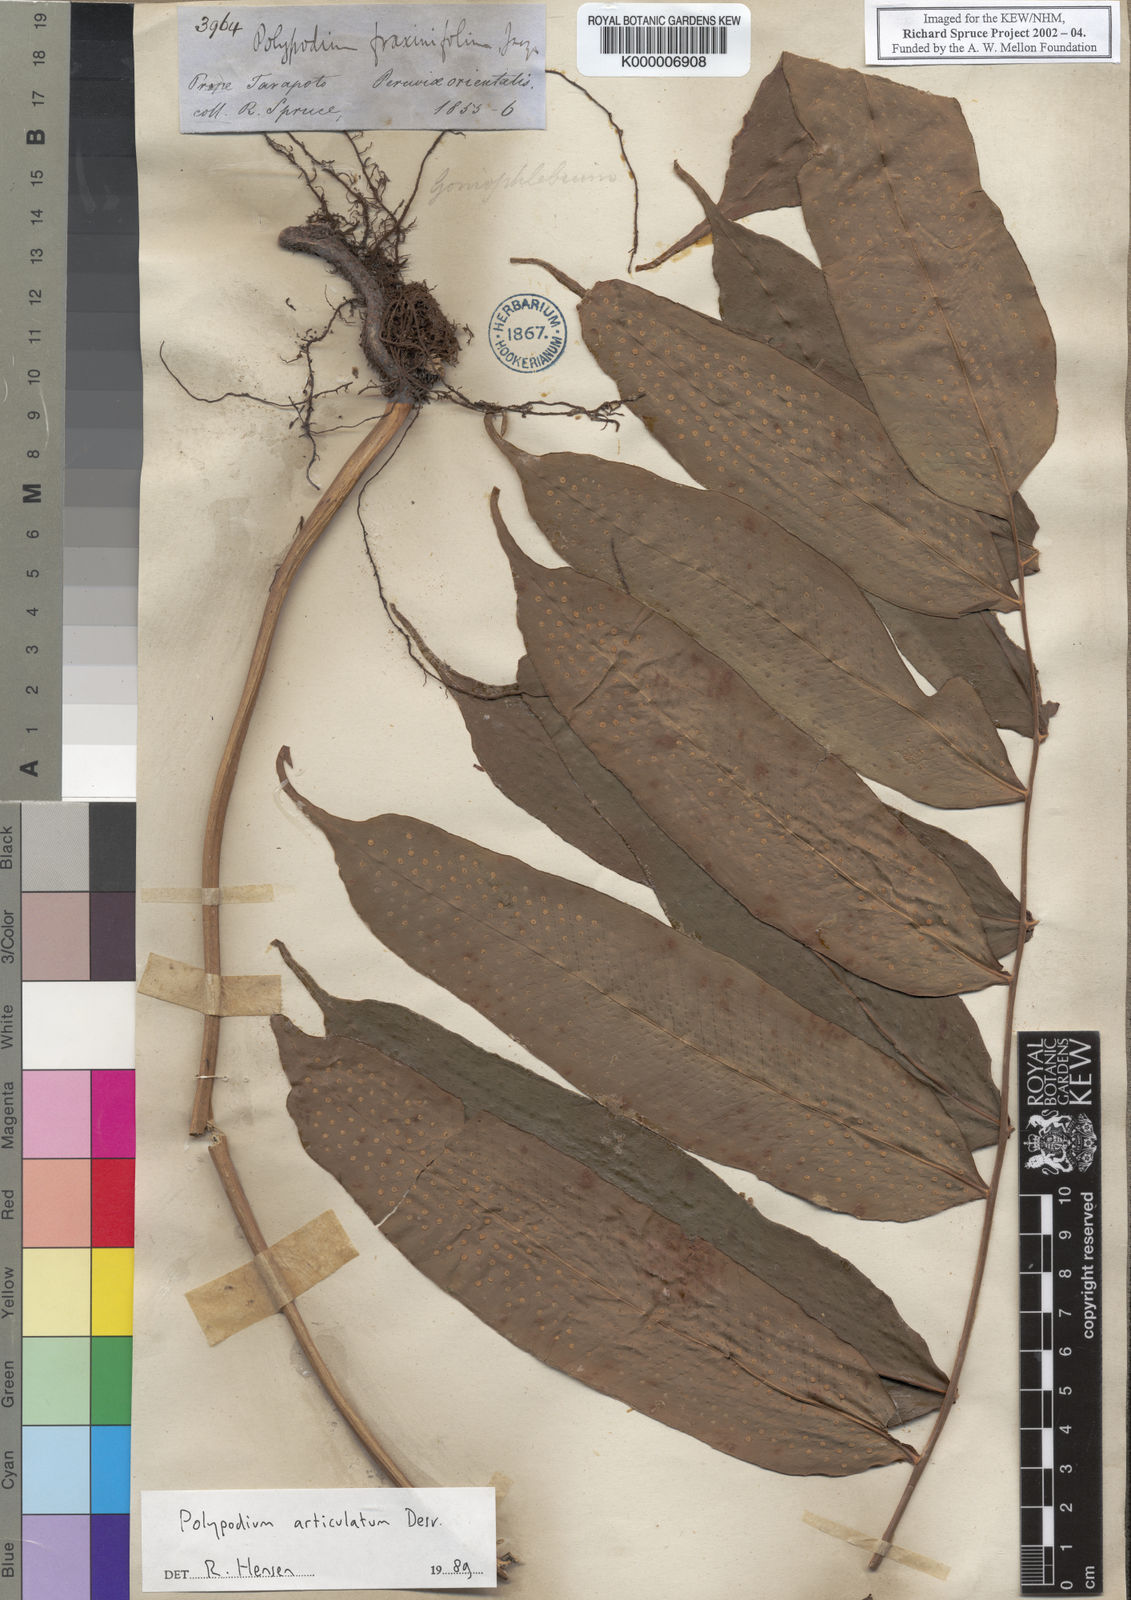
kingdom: Plantae
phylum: Tracheophyta
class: Polypodiopsida
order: Polypodiales
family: Polypodiaceae
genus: Serpocaulon
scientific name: Serpocaulon articulatum
